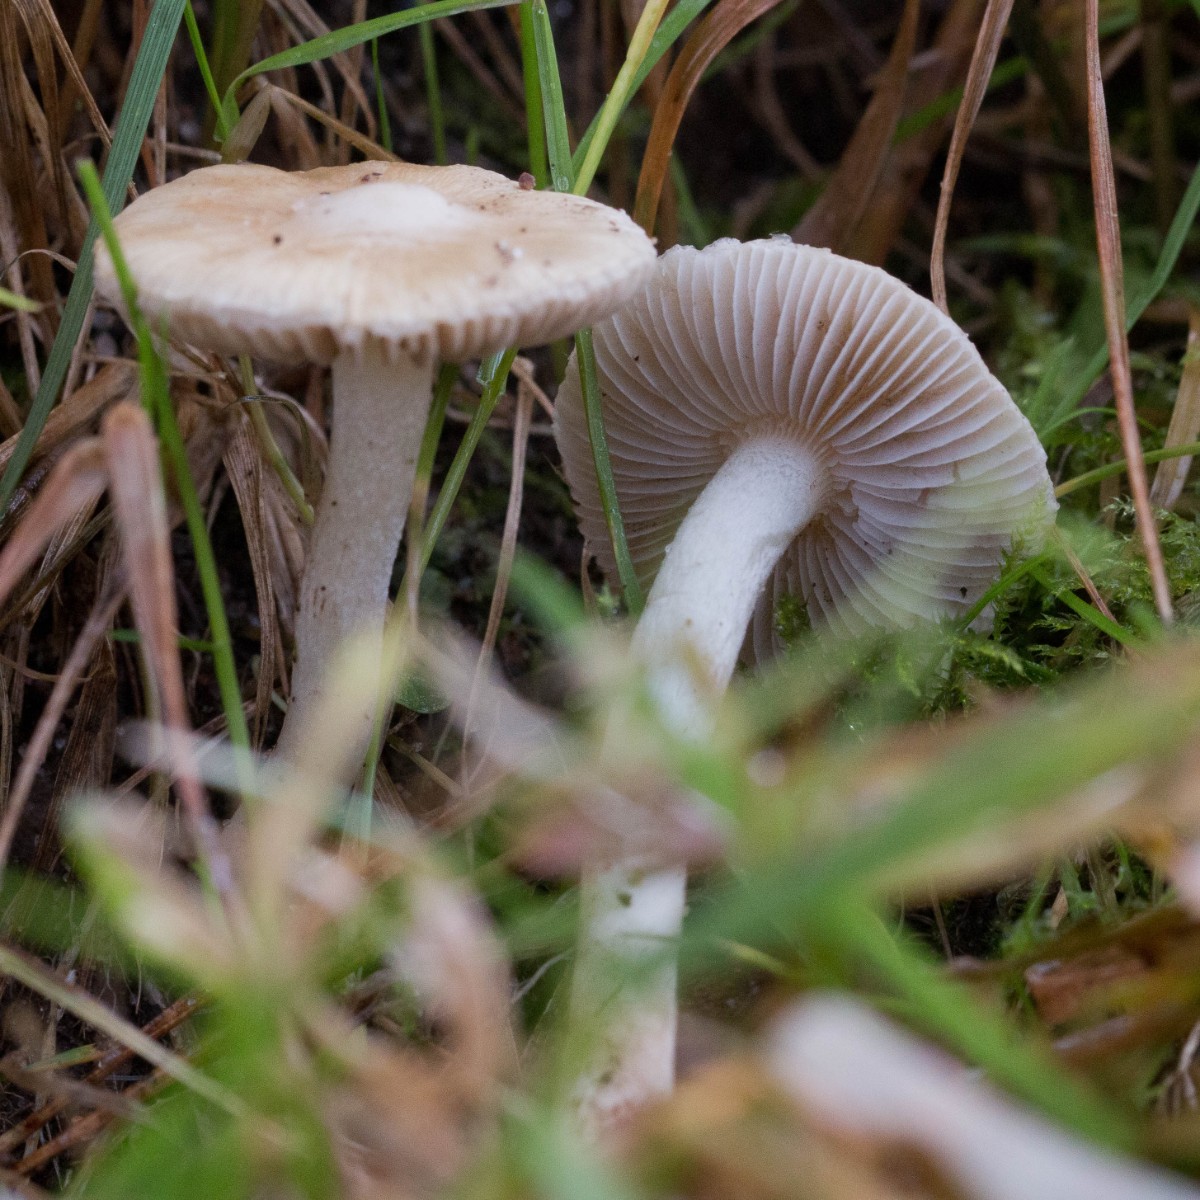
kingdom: Fungi
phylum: Basidiomycota
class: Agaricomycetes
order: Agaricales
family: Inocybaceae
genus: Inocybe
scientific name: Inocybe
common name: trævlhat
